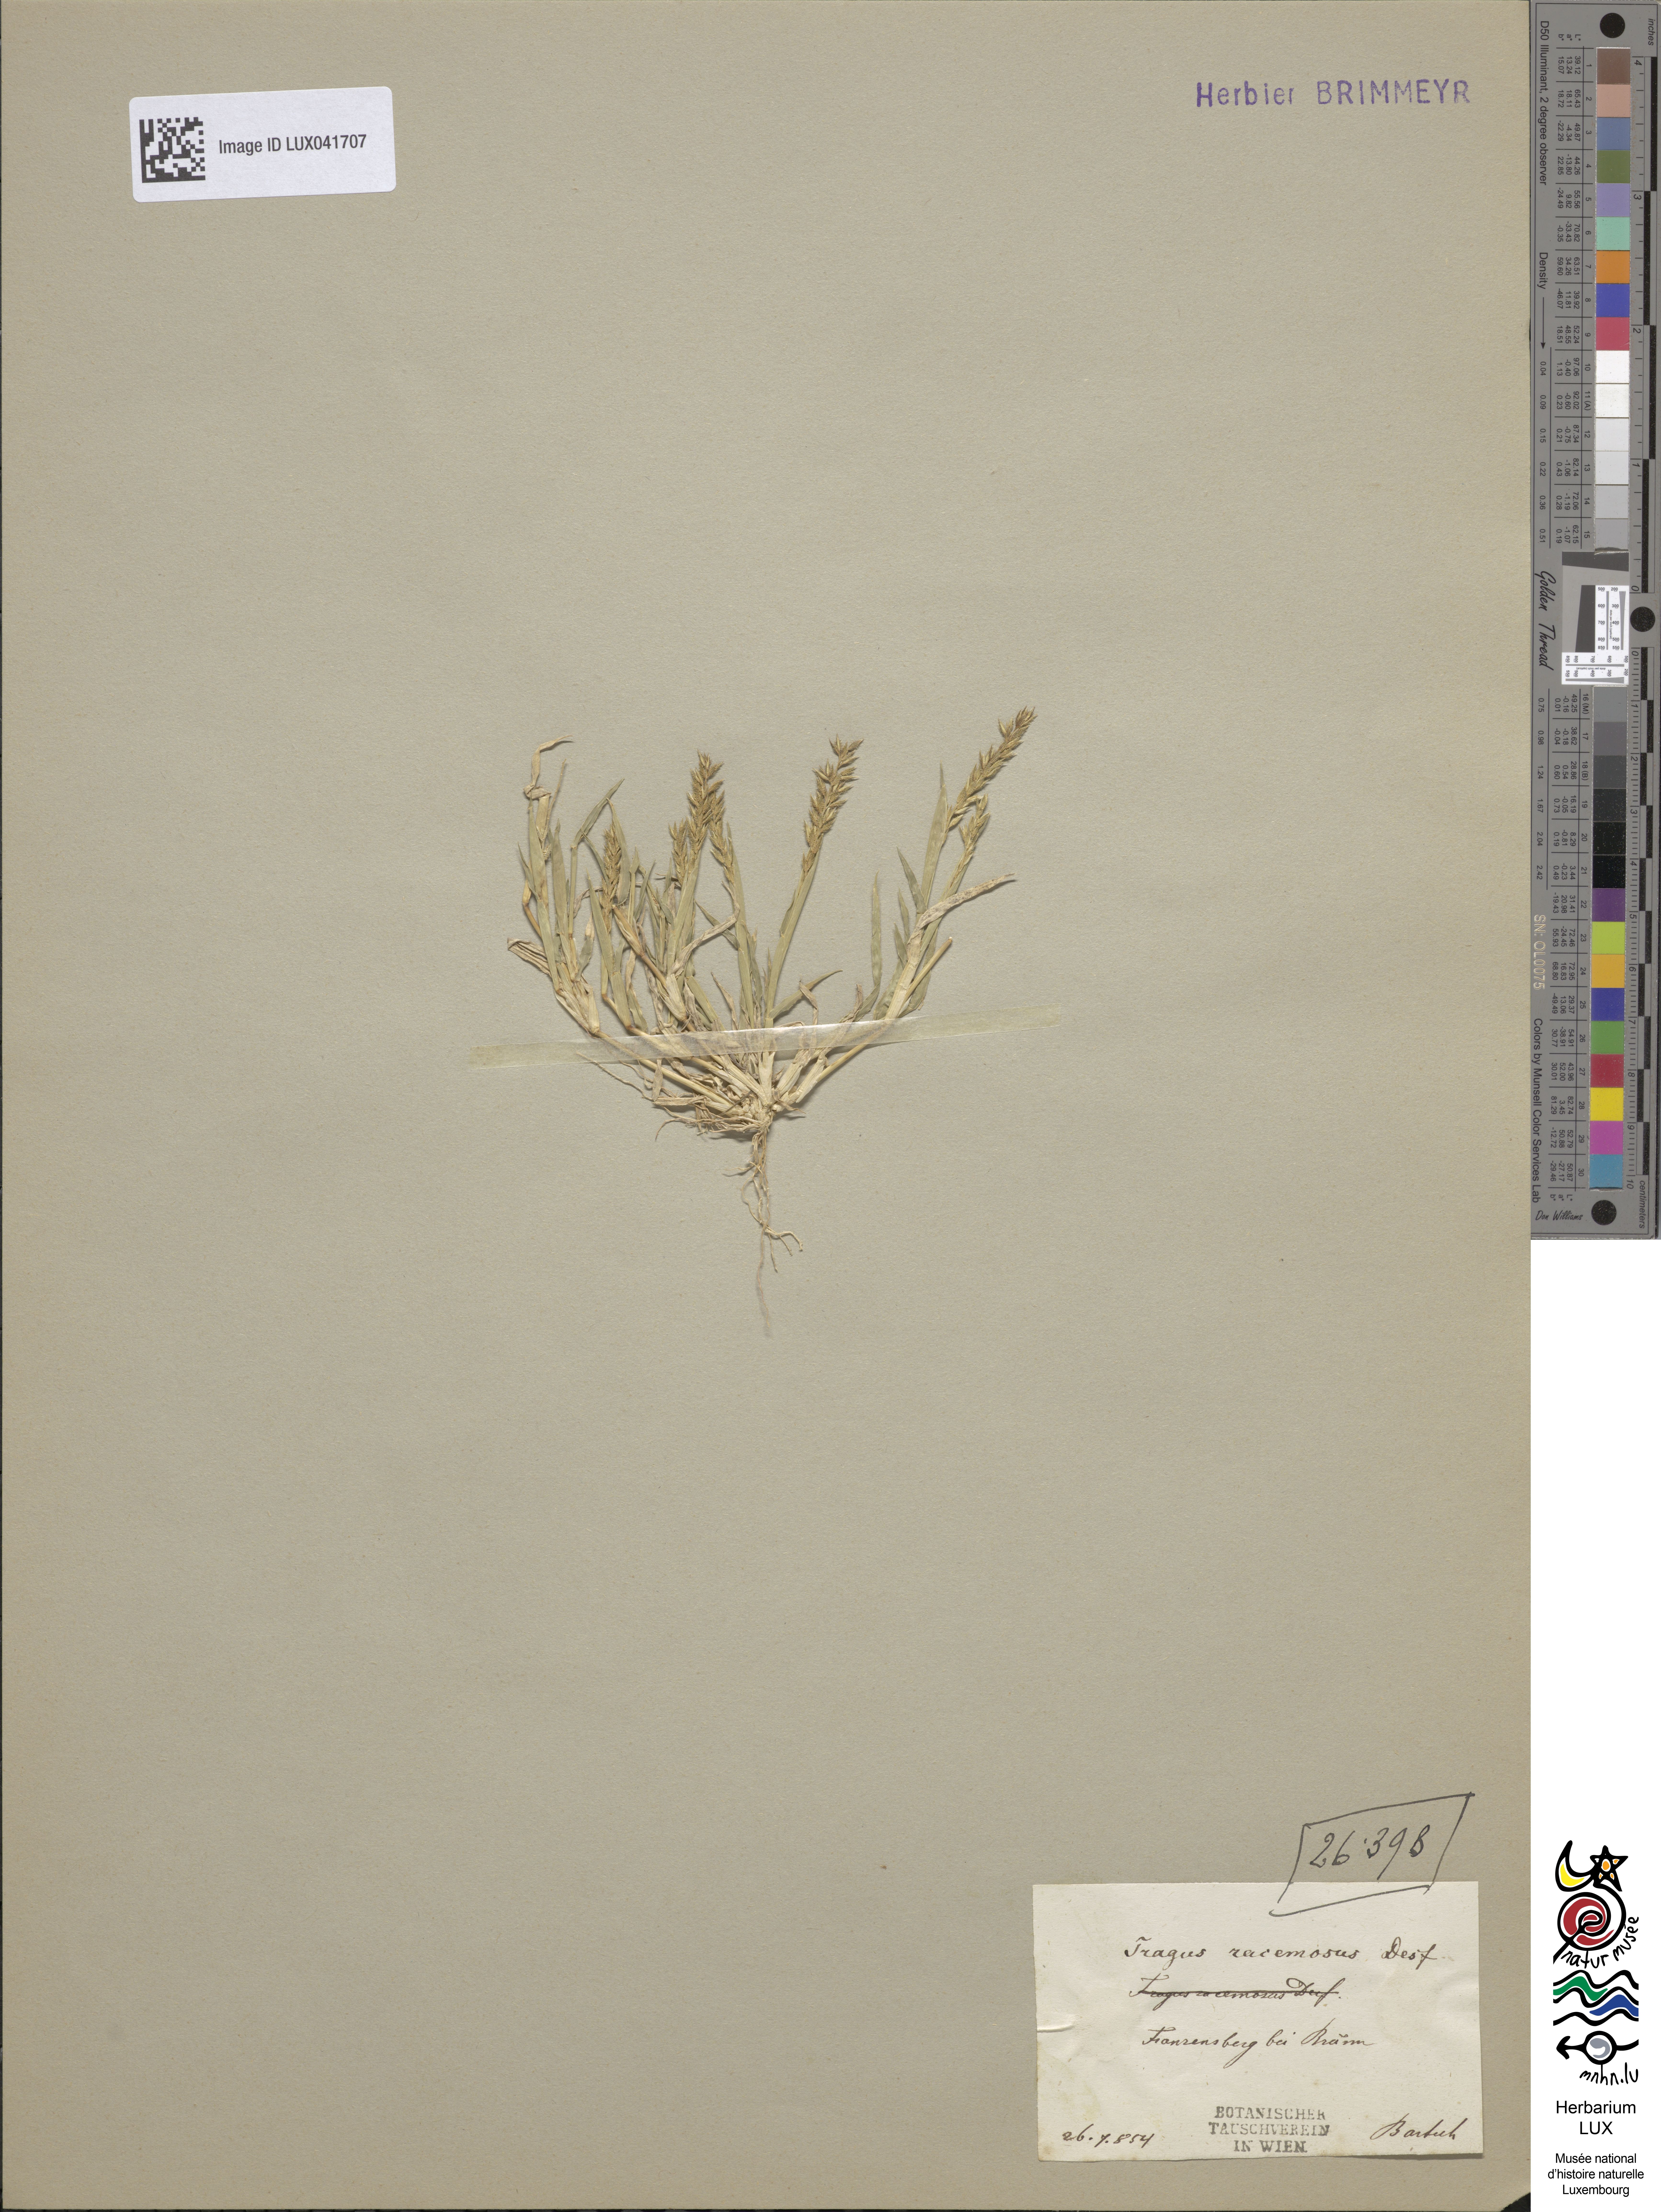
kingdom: Plantae
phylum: Tracheophyta
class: Liliopsida
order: Poales
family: Poaceae
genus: Tragus
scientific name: Tragus racemosus
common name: European bur-grass
